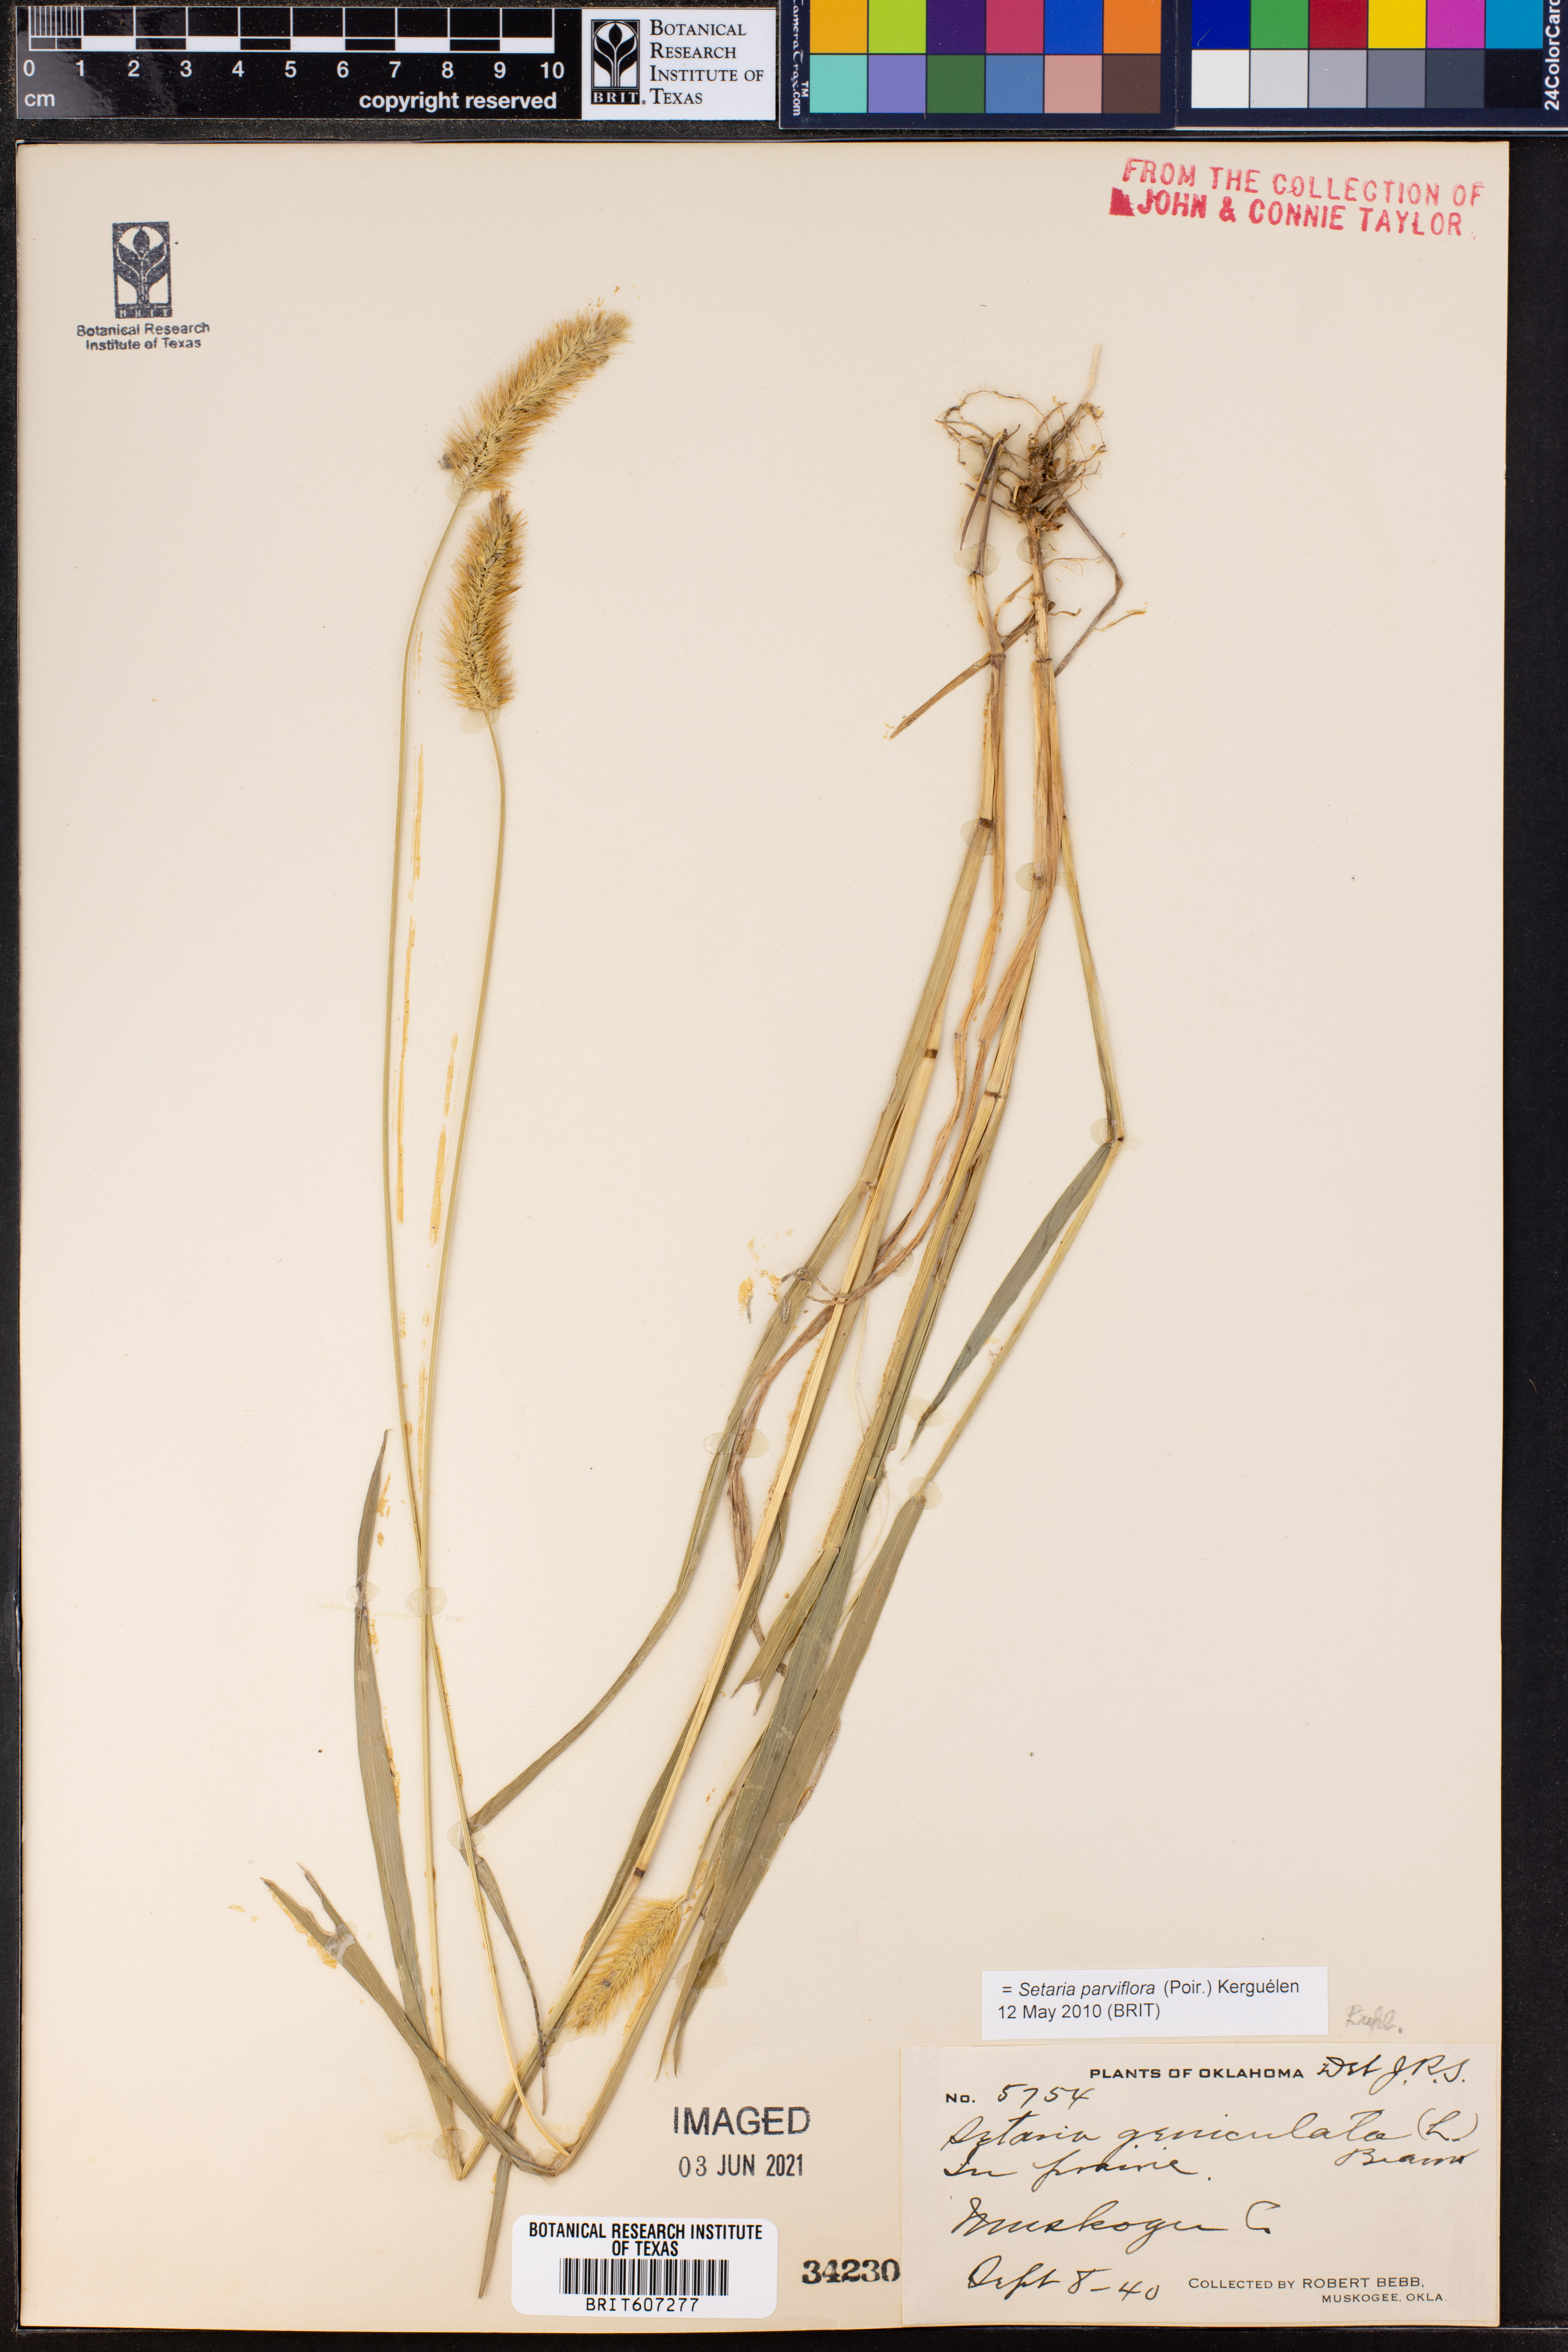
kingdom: Plantae
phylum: Tracheophyta
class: Liliopsida
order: Poales
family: Poaceae
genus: Setaria
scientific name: Setaria parviflora
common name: Knotroot bristle-grass
